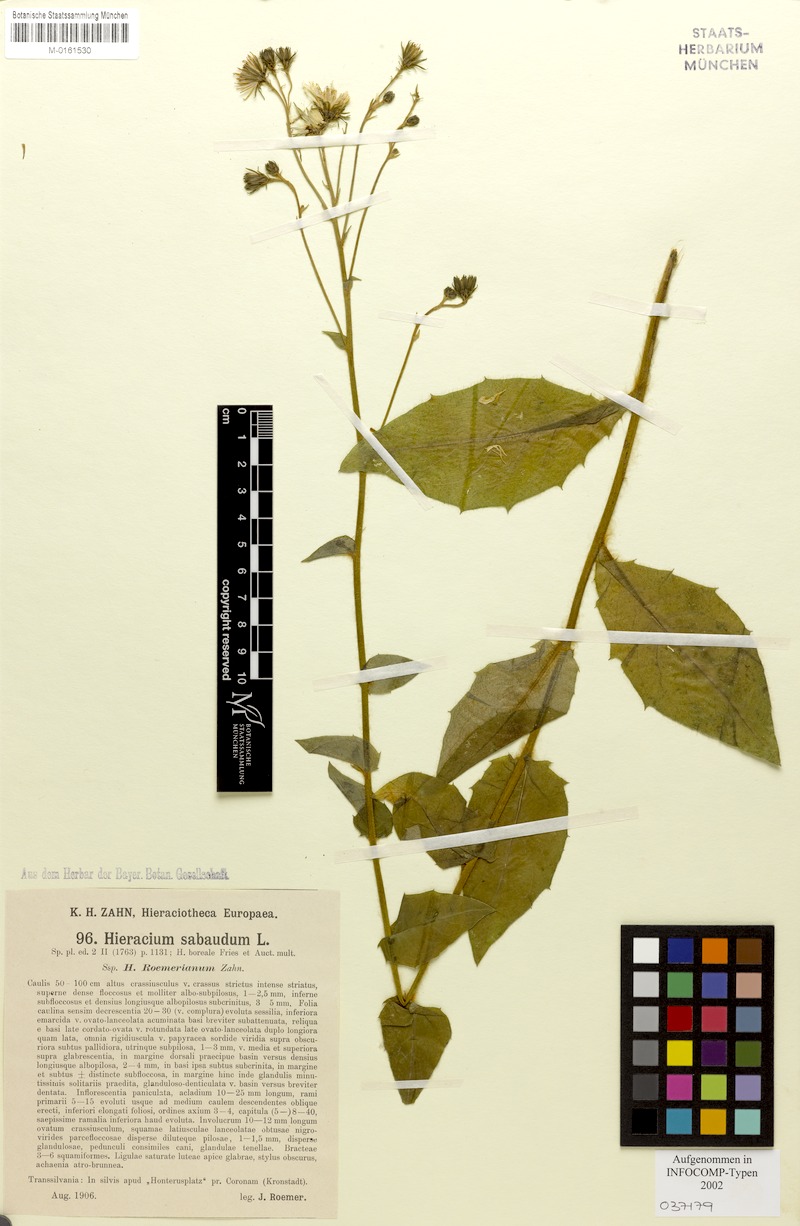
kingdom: Plantae
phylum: Tracheophyta
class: Magnoliopsida
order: Asterales
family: Asteraceae
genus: Hieracium
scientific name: Hieracium sabaudum
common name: New england hawkweed
